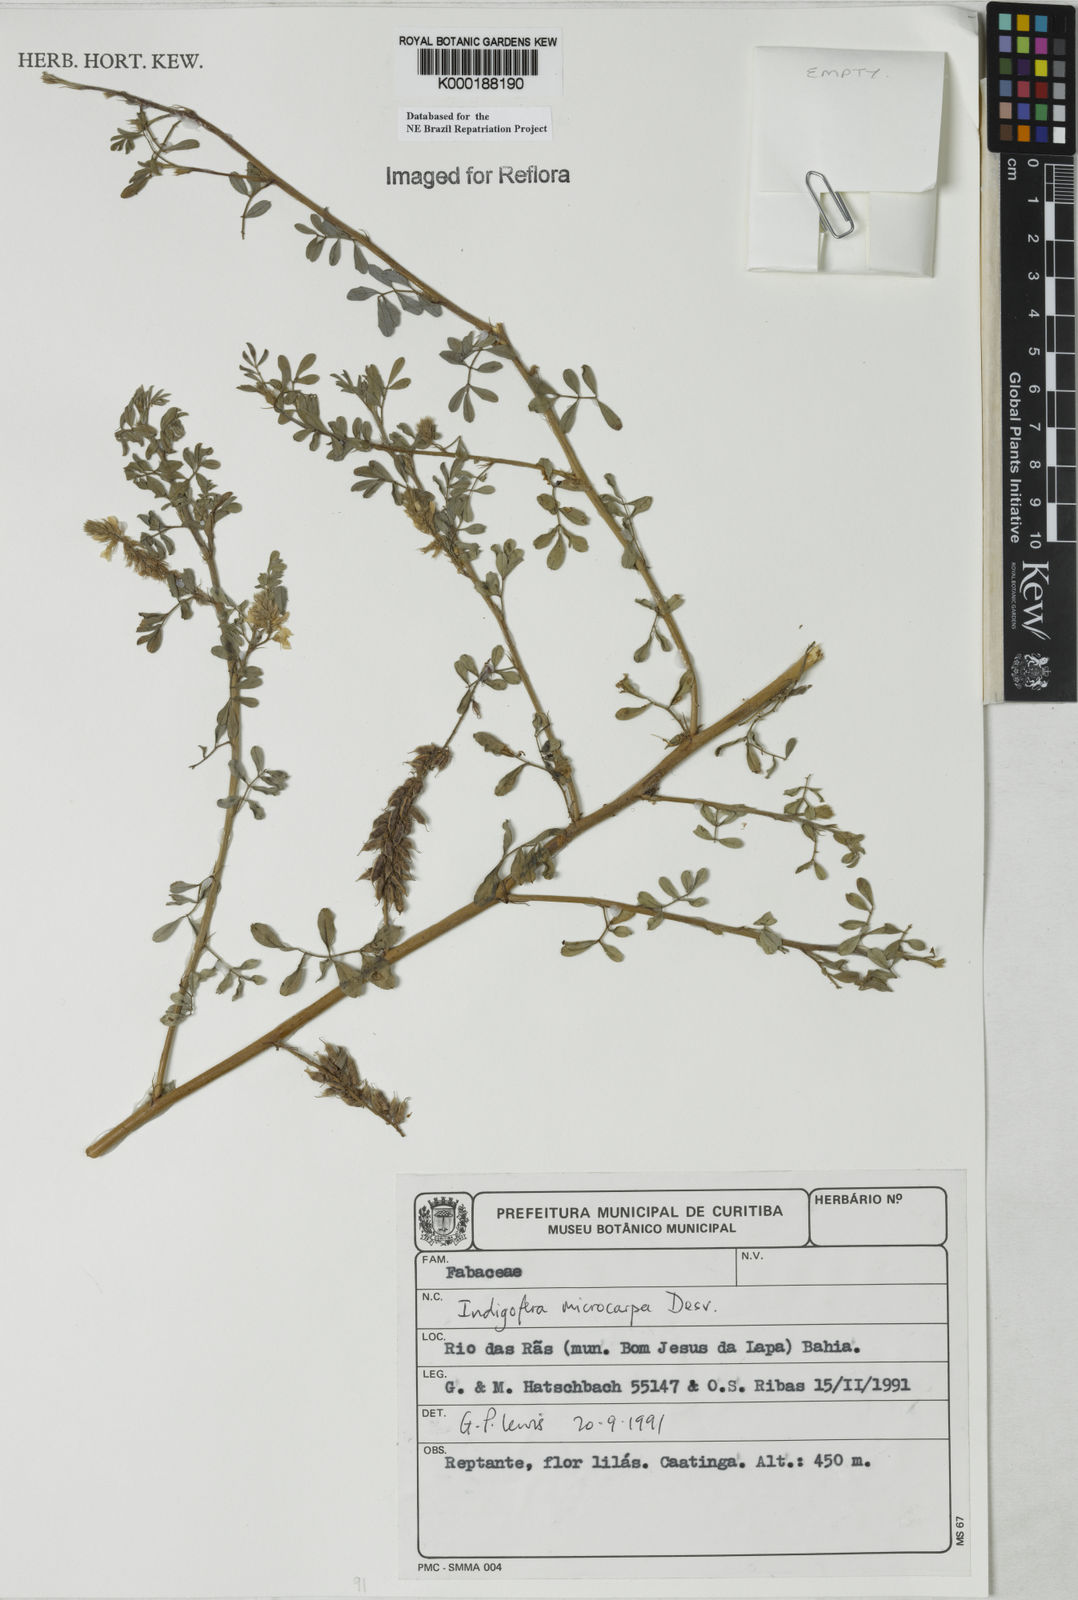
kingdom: Plantae
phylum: Tracheophyta
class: Magnoliopsida
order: Fabales
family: Fabaceae
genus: Indigofera
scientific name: Indigofera microcarpa
